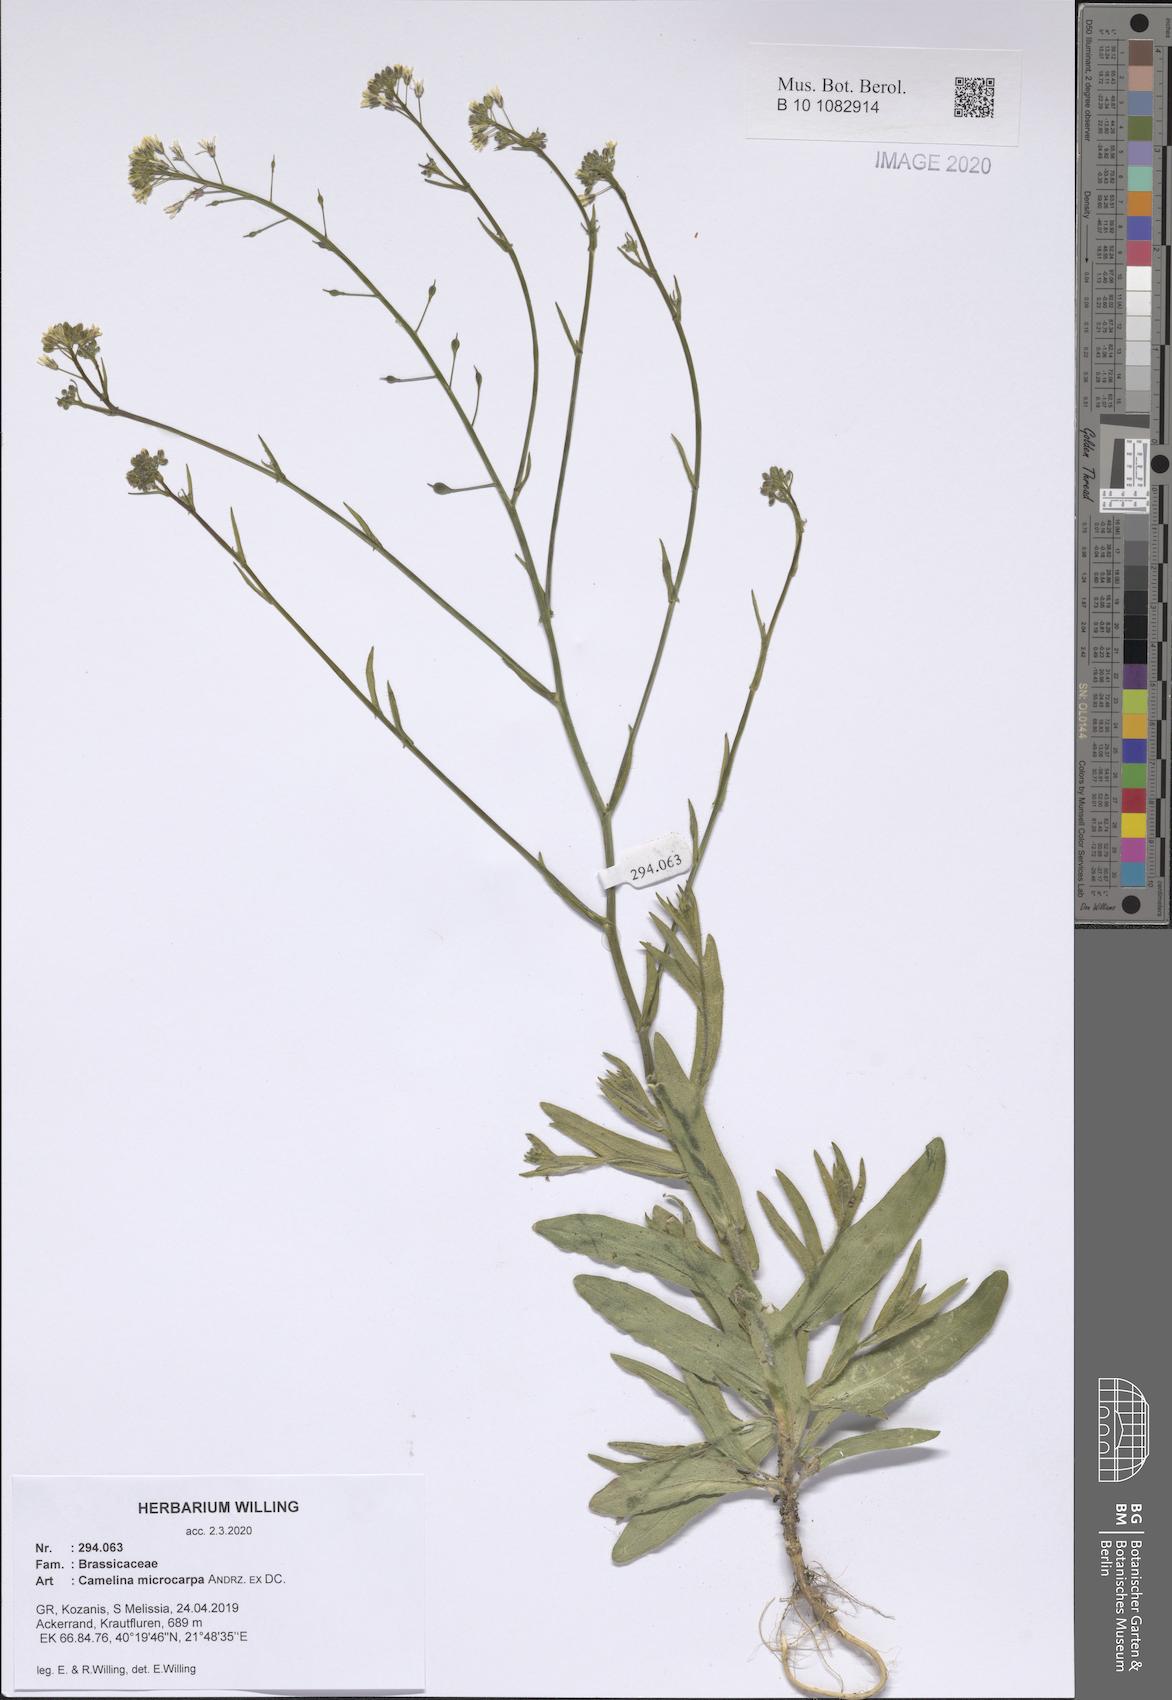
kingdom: Plantae
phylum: Tracheophyta
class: Magnoliopsida
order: Brassicales
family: Brassicaceae
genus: Camelina
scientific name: Camelina microcarpa
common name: Lesser gold-of-pleasure
